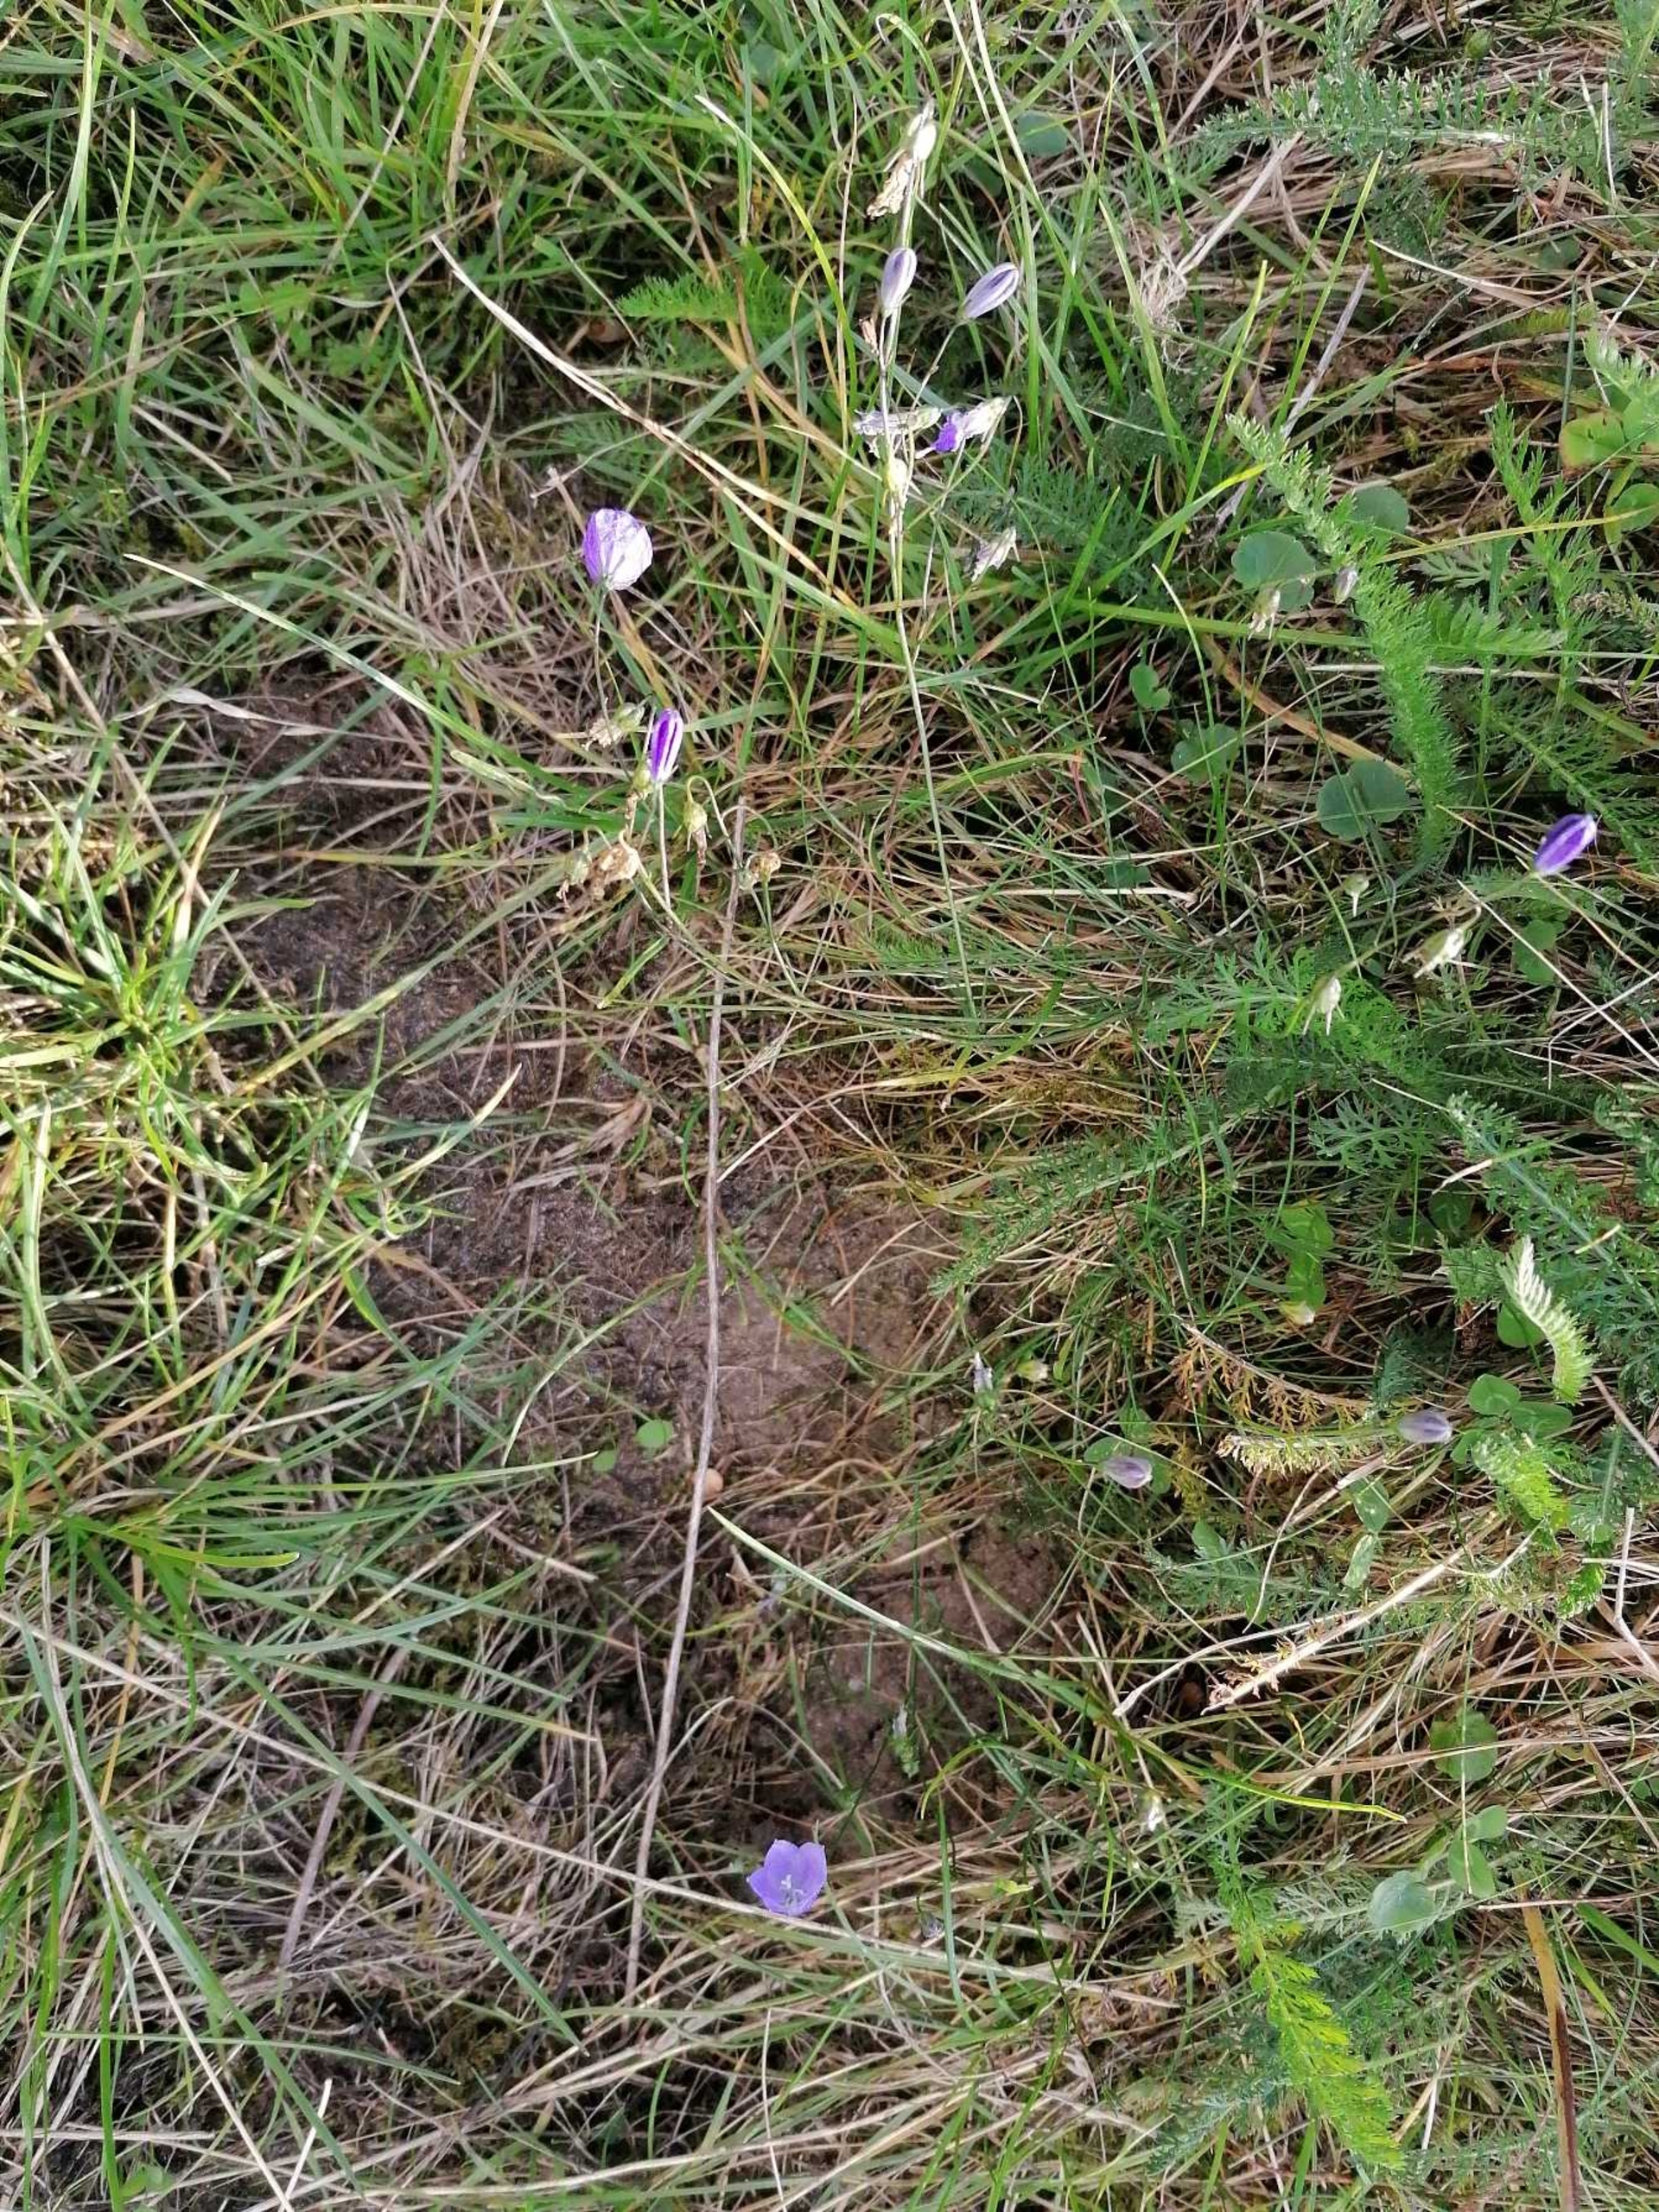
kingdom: Plantae
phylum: Tracheophyta
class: Magnoliopsida
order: Asterales
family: Campanulaceae
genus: Campanula
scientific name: Campanula rotundifolia
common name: Liden klokke
